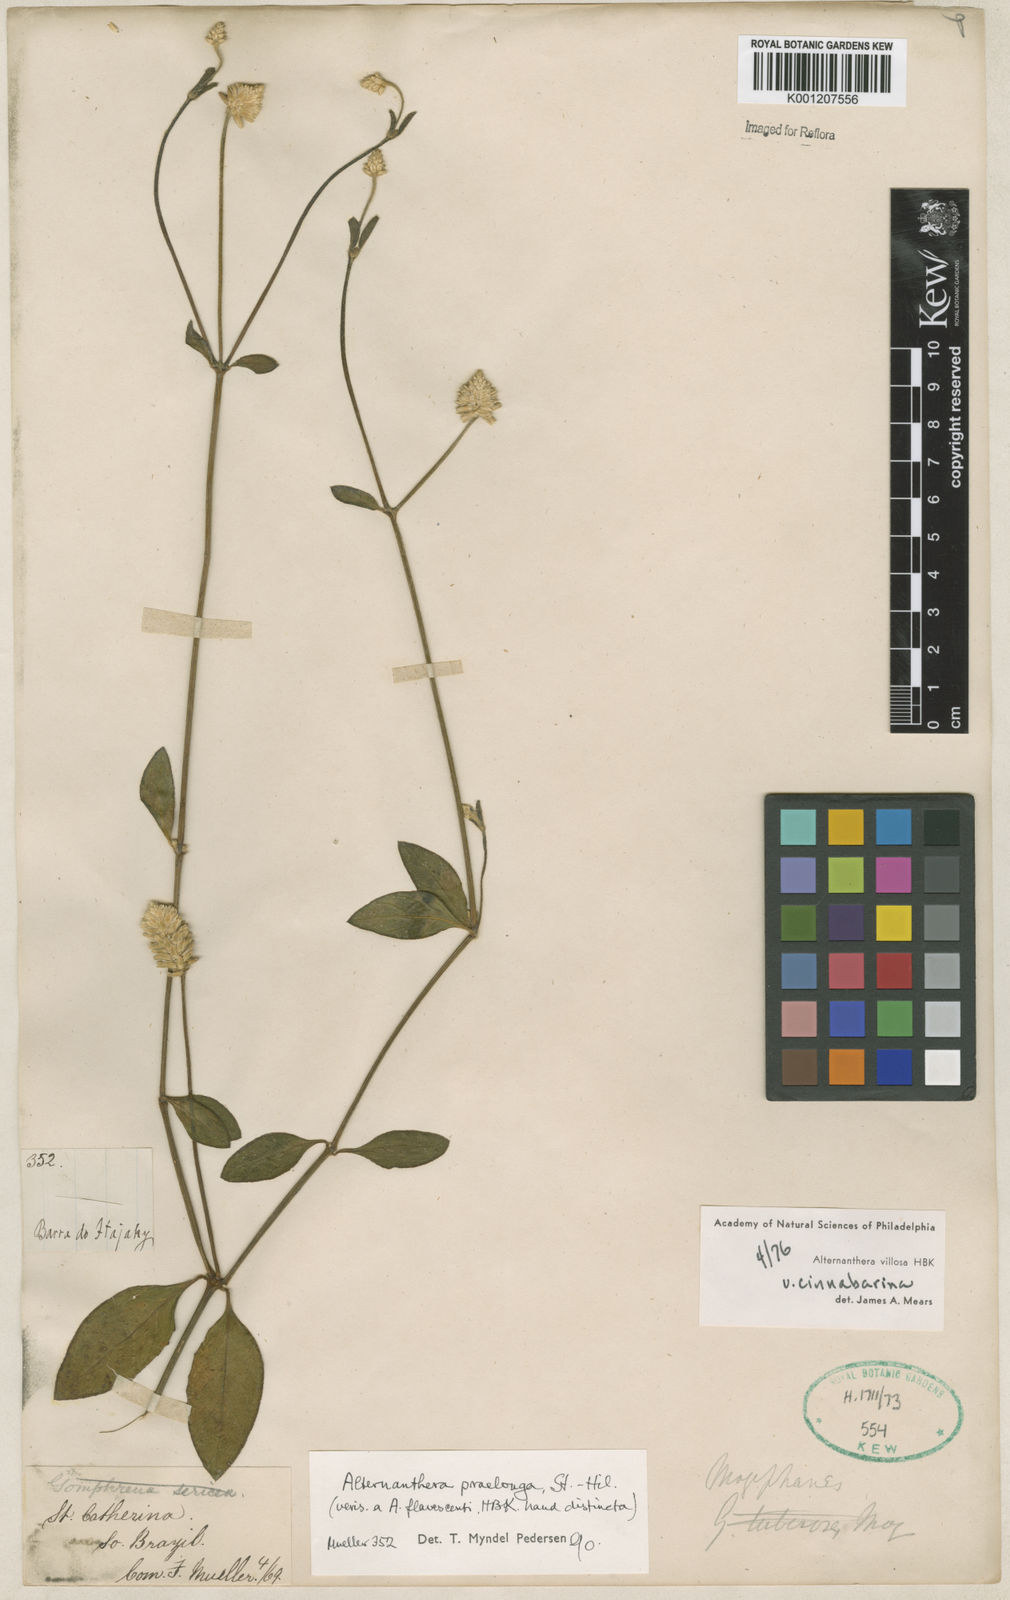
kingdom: Plantae
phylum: Tracheophyta
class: Magnoliopsida
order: Caryophyllales
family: Amaranthaceae
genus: Alternanthera
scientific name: Alternanthera praelonga
